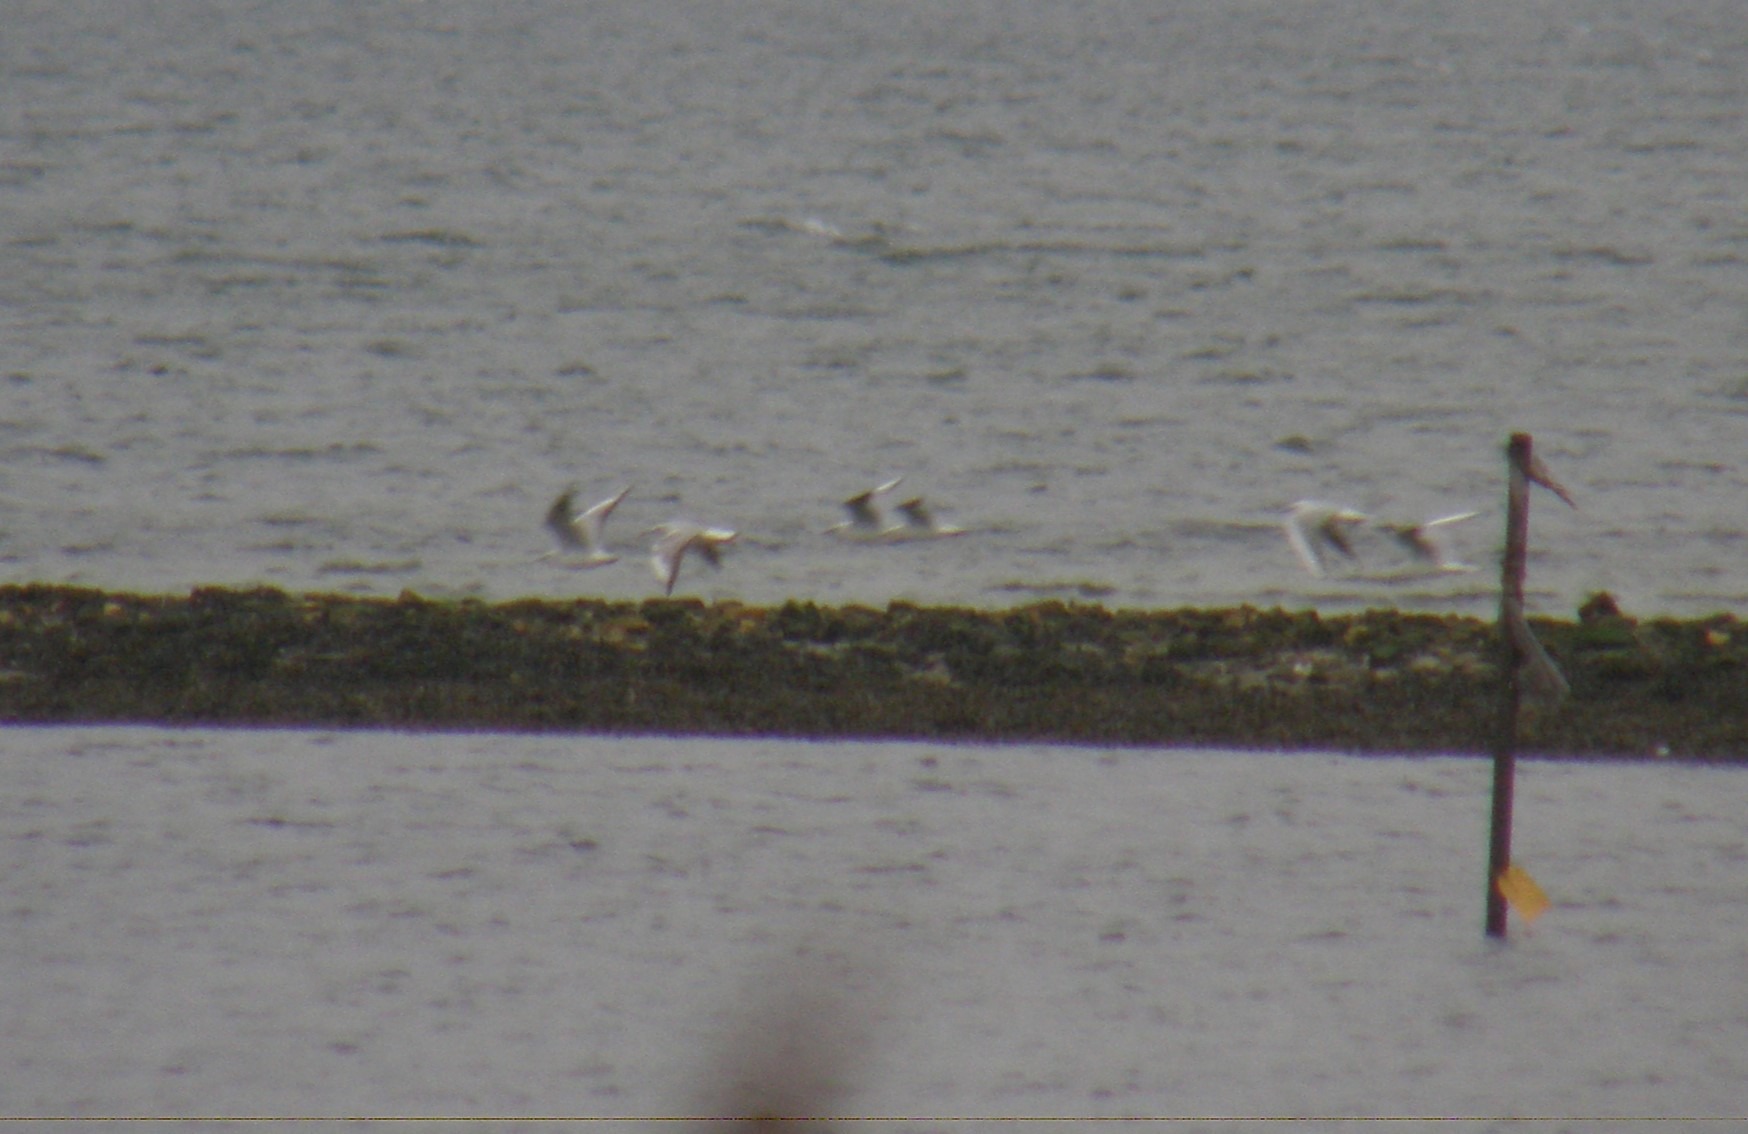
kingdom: Animalia
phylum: Chordata
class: Aves
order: Charadriiformes
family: Laridae
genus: Chroicocephalus
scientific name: Chroicocephalus ridibundus
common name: Hættemåge
